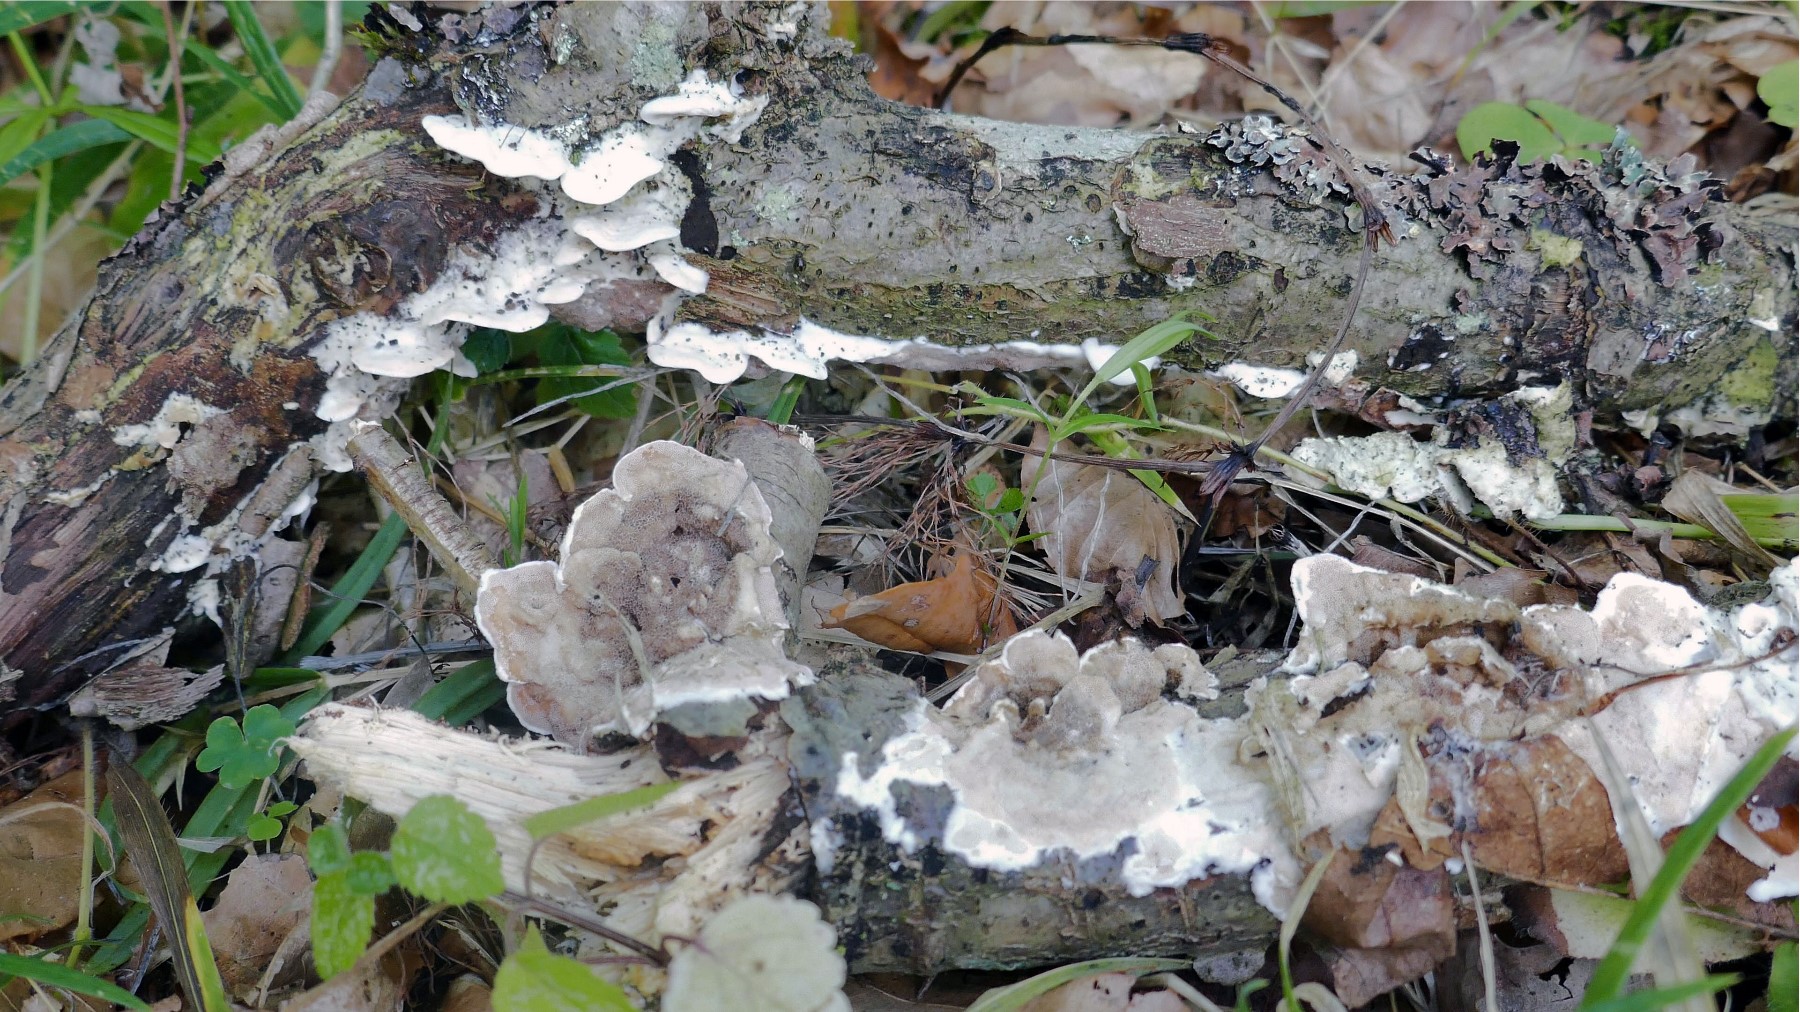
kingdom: Fungi
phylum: Basidiomycota
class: Agaricomycetes
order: Polyporales
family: Irpicaceae
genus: Vitreoporus
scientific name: Vitreoporus dichrous
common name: tofarvet foldporesvamp
